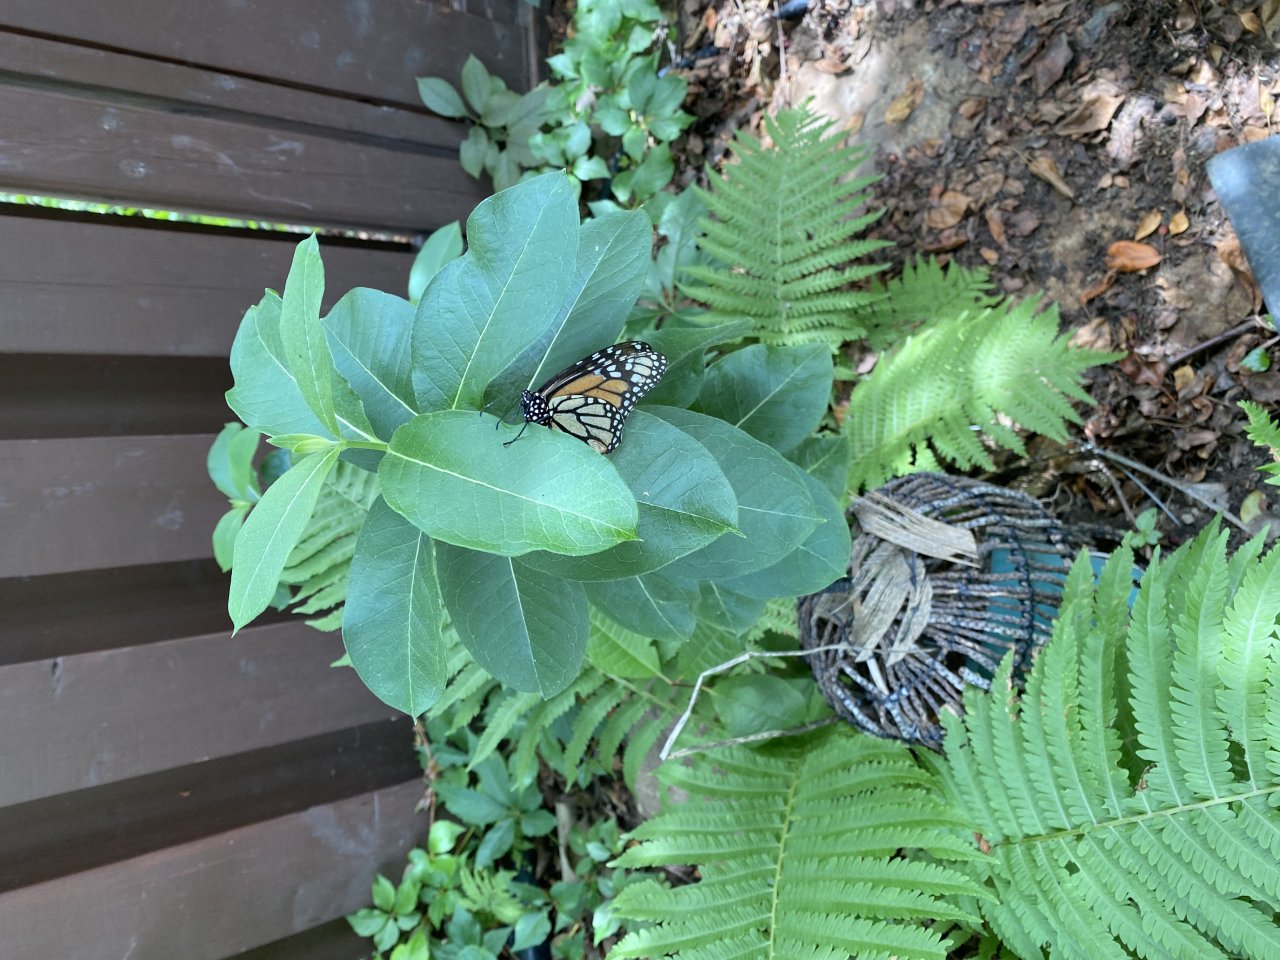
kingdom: Animalia
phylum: Arthropoda
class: Insecta
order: Lepidoptera
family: Nymphalidae
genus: Danaus
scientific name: Danaus plexippus
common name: Monarch
